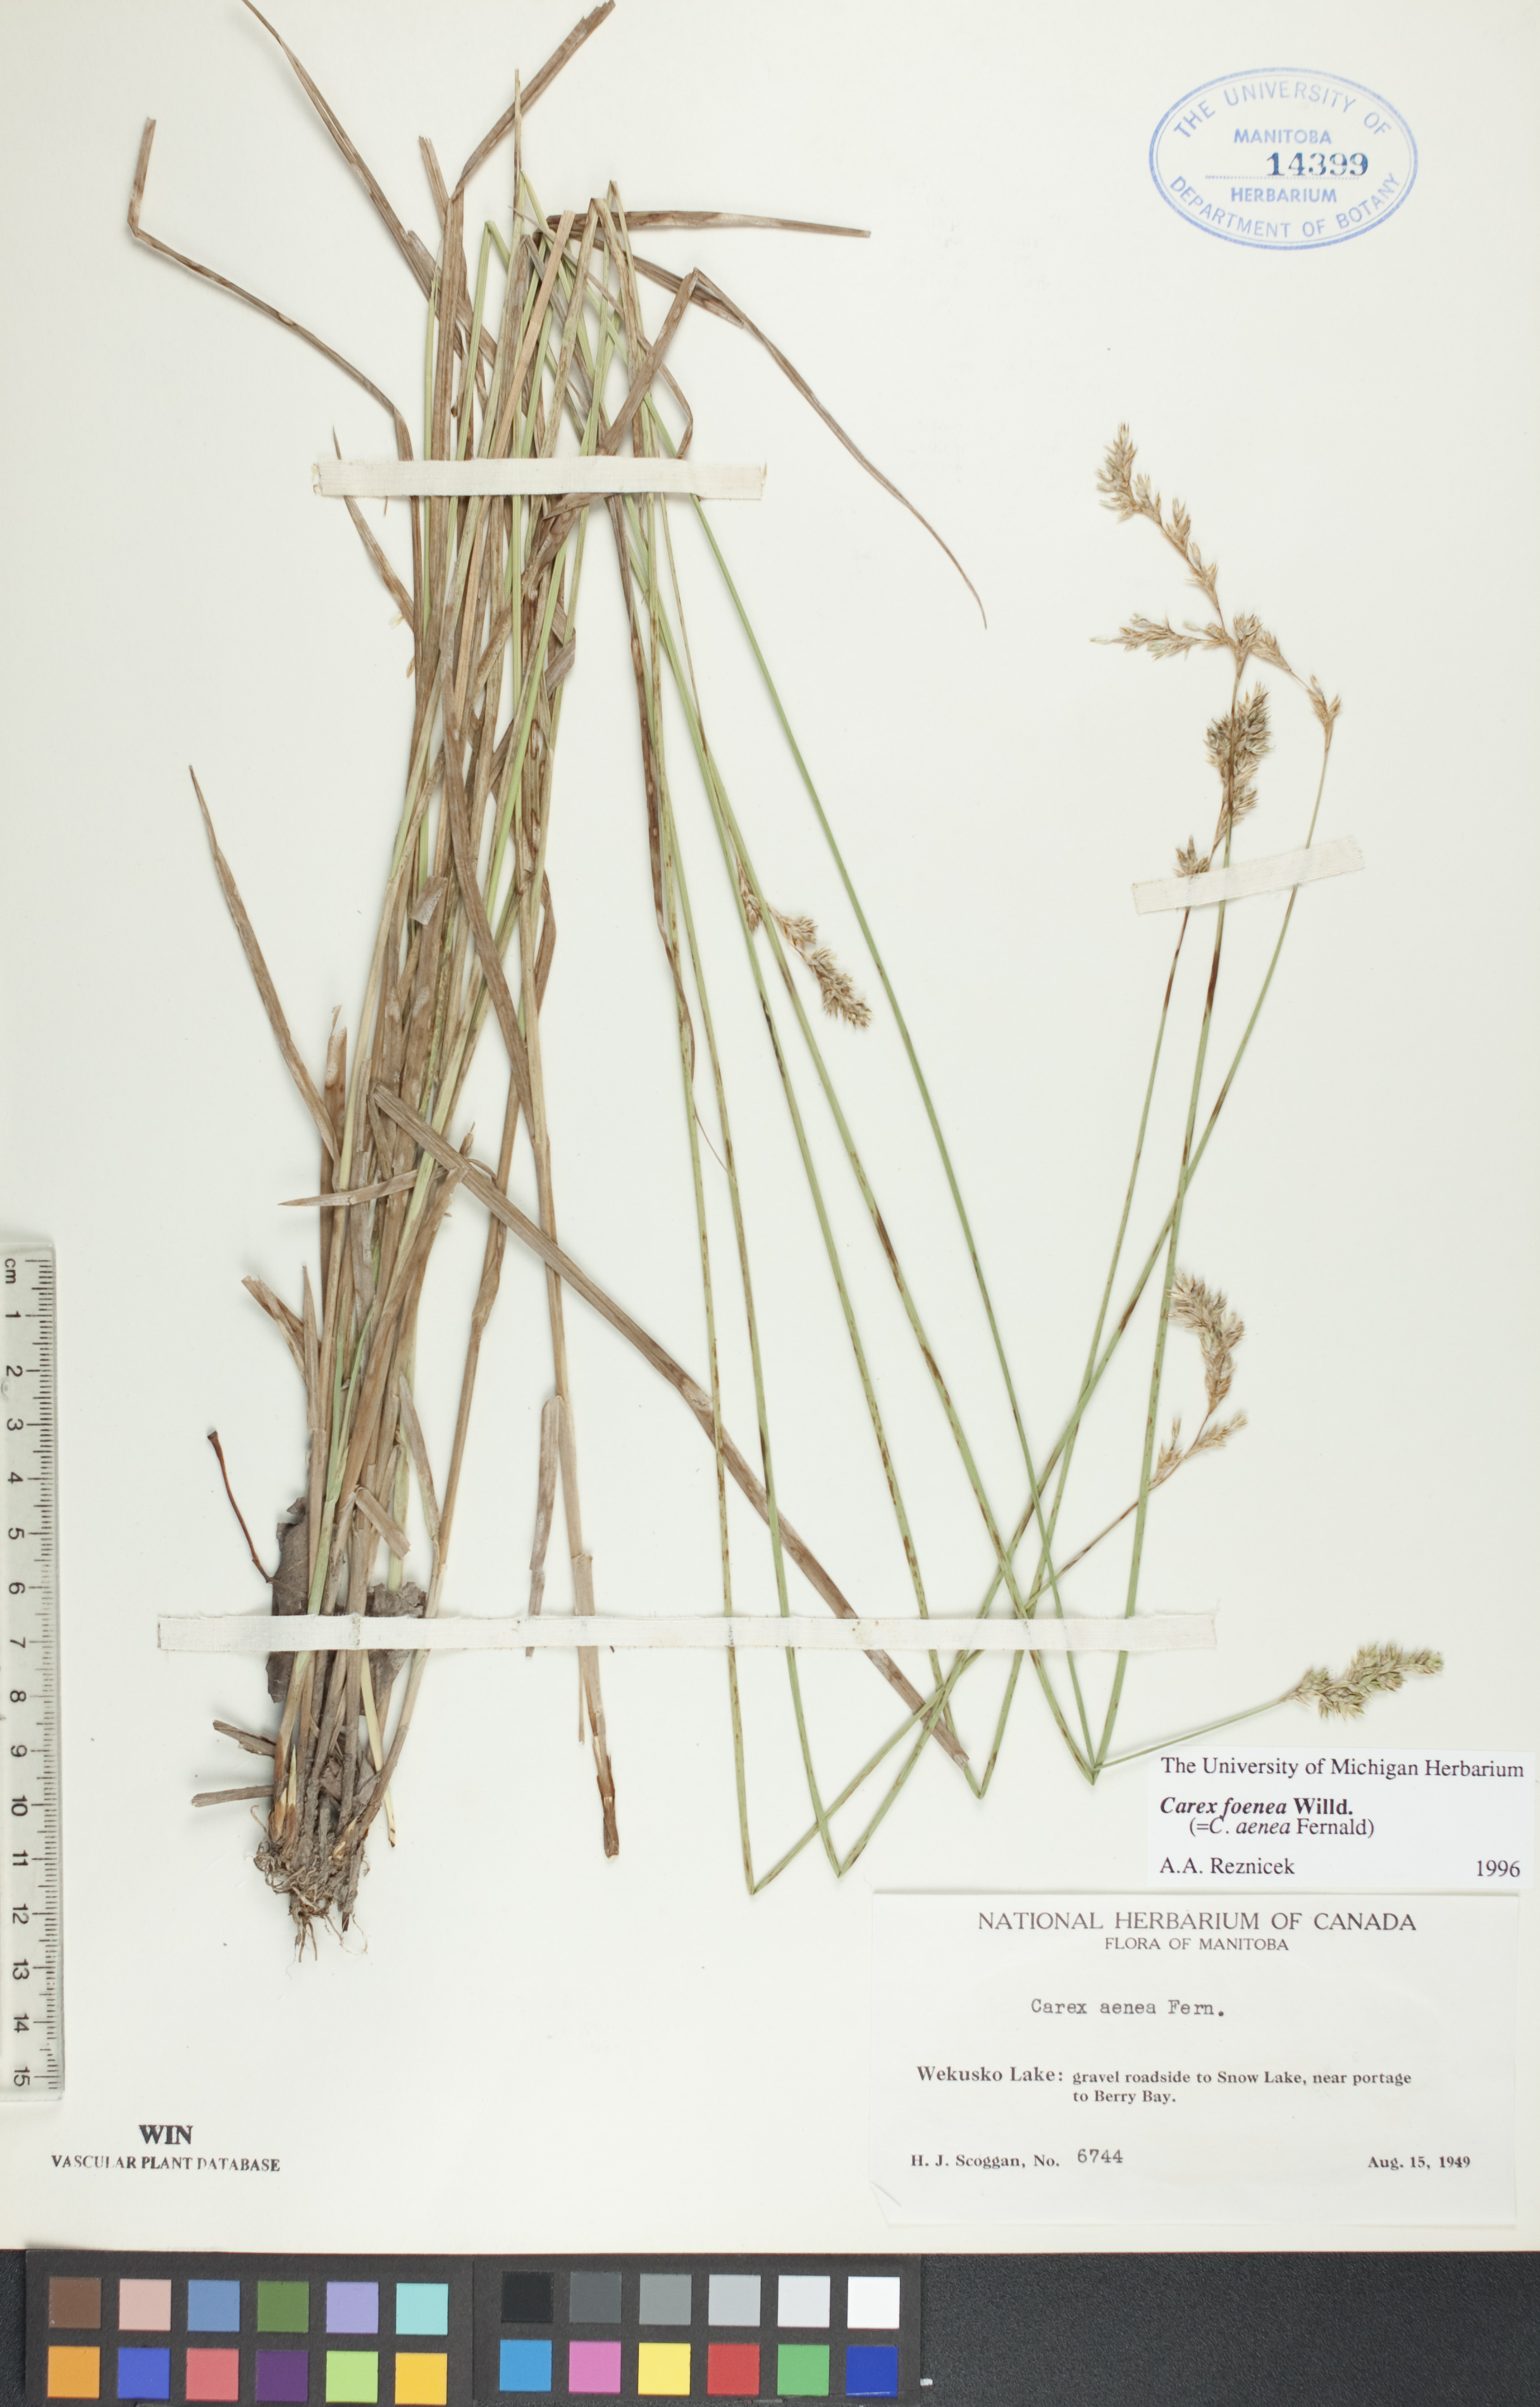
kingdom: Plantae
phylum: Tracheophyta
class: Liliopsida
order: Poales
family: Cyperaceae
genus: Carex
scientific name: Carex foenea
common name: Bronze sedge
